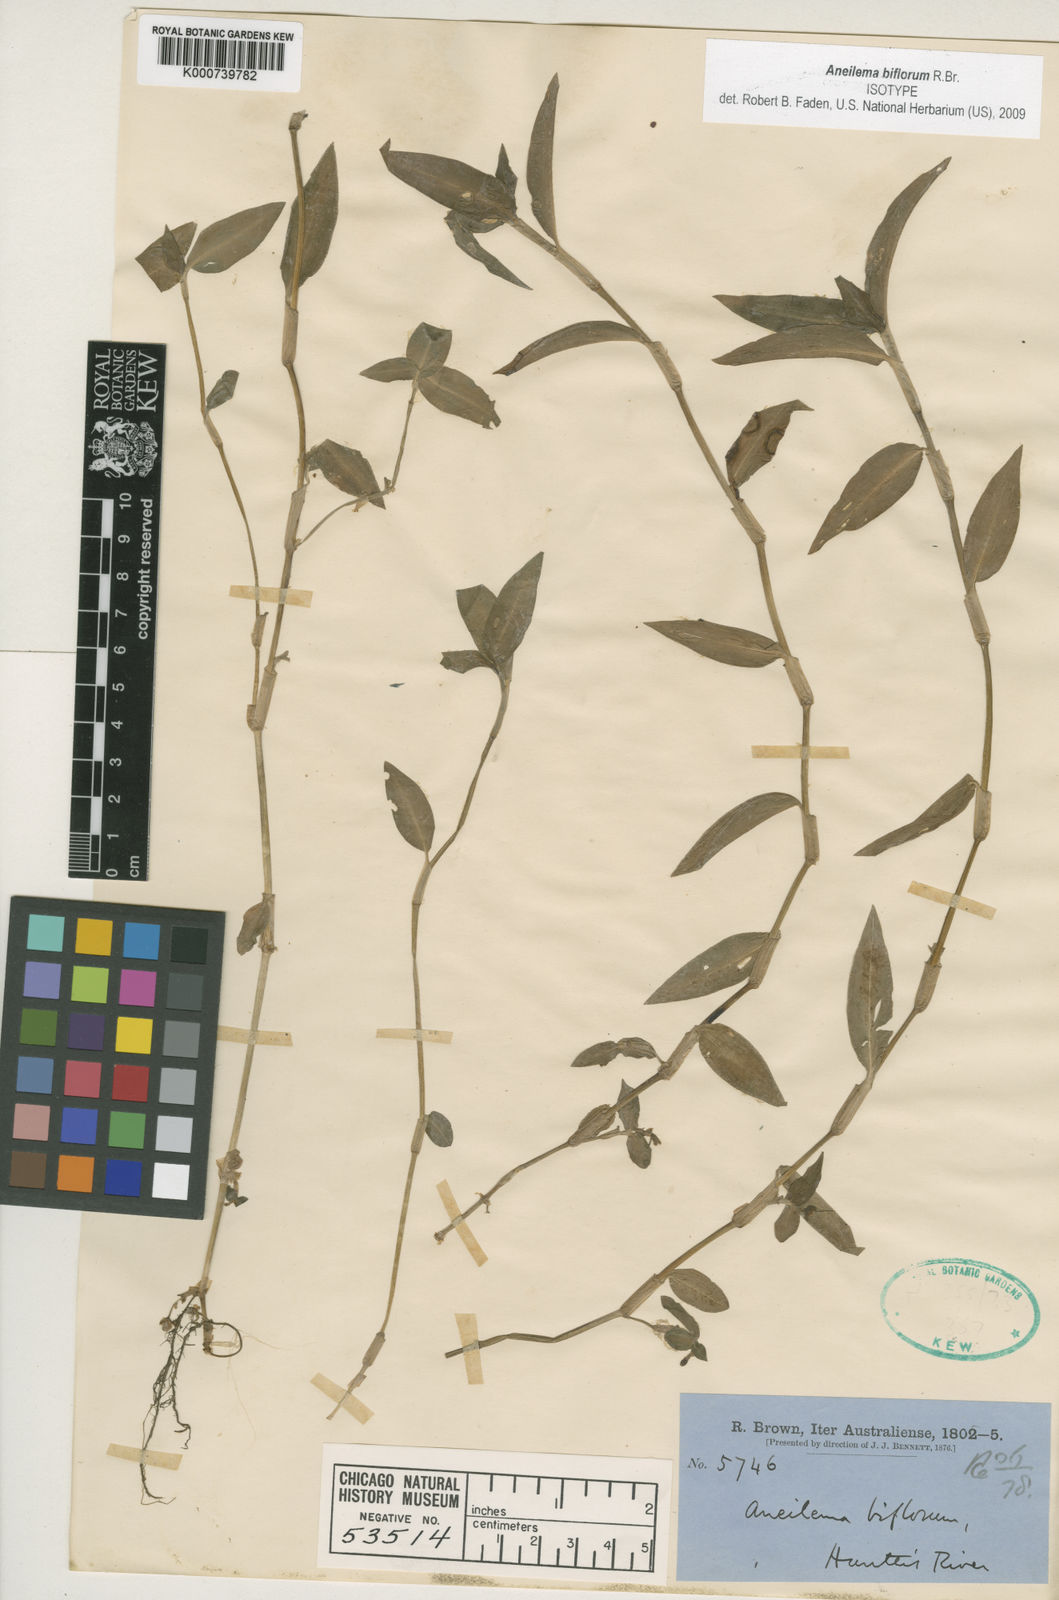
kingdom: Plantae
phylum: Tracheophyta
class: Liliopsida
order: Commelinales
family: Commelinaceae
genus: Aneilema
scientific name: Aneilema biflorum
